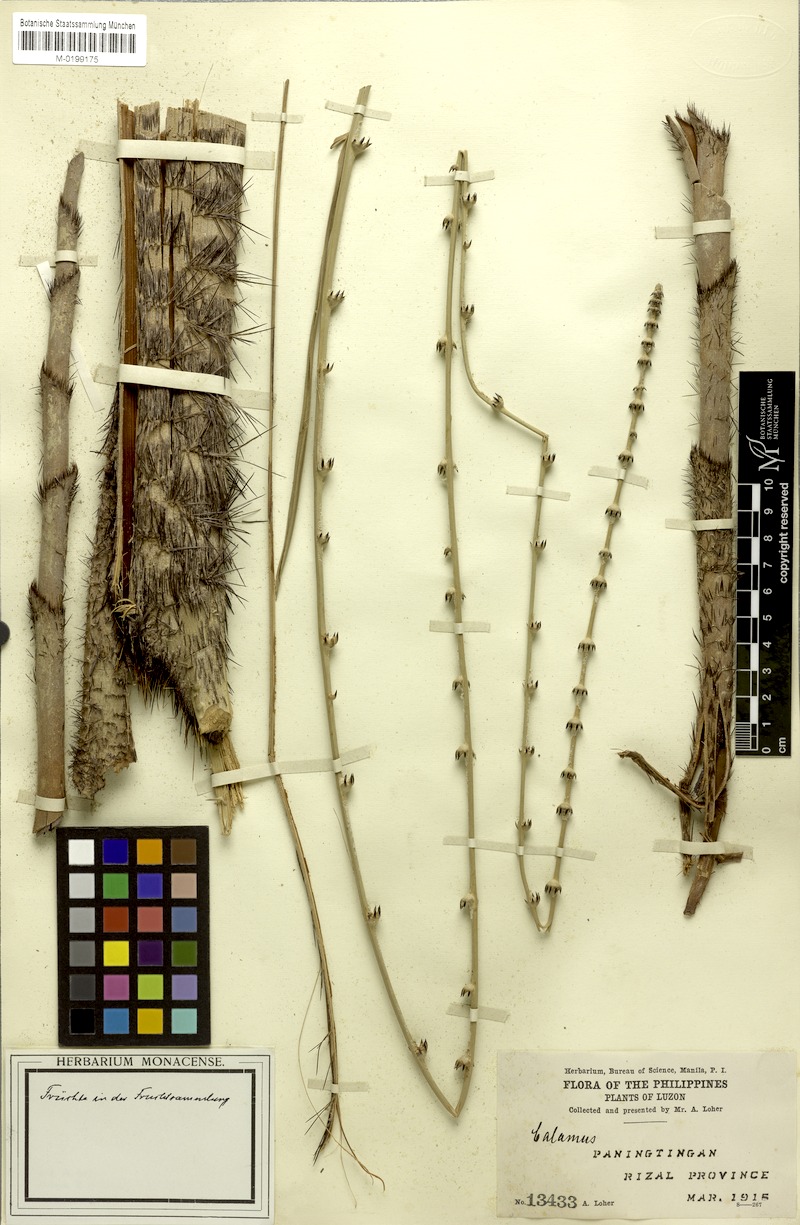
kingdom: Plantae
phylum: Tracheophyta
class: Liliopsida
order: Arecales
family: Arecaceae
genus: Calamus
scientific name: Calamus ochrolepis
